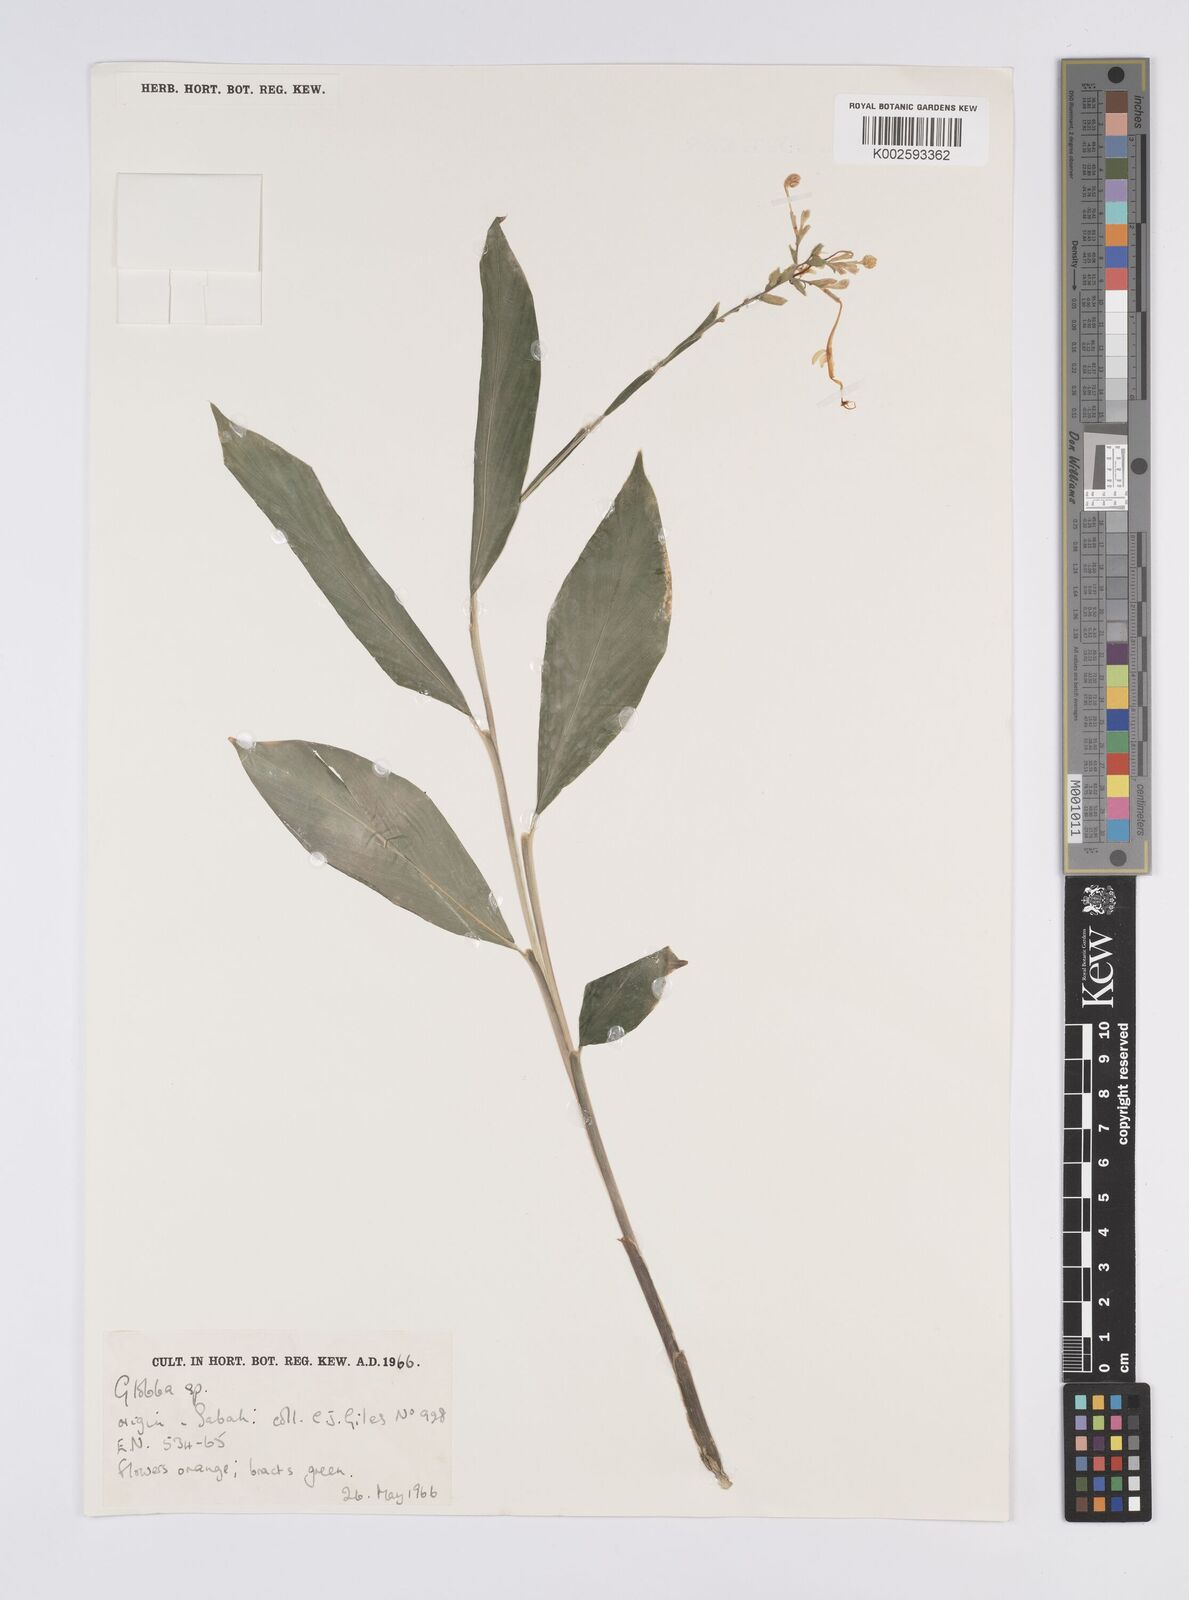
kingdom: Plantae
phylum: Tracheophyta
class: Liliopsida
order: Zingiberales
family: Zingiberaceae
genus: Globba
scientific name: Globba
